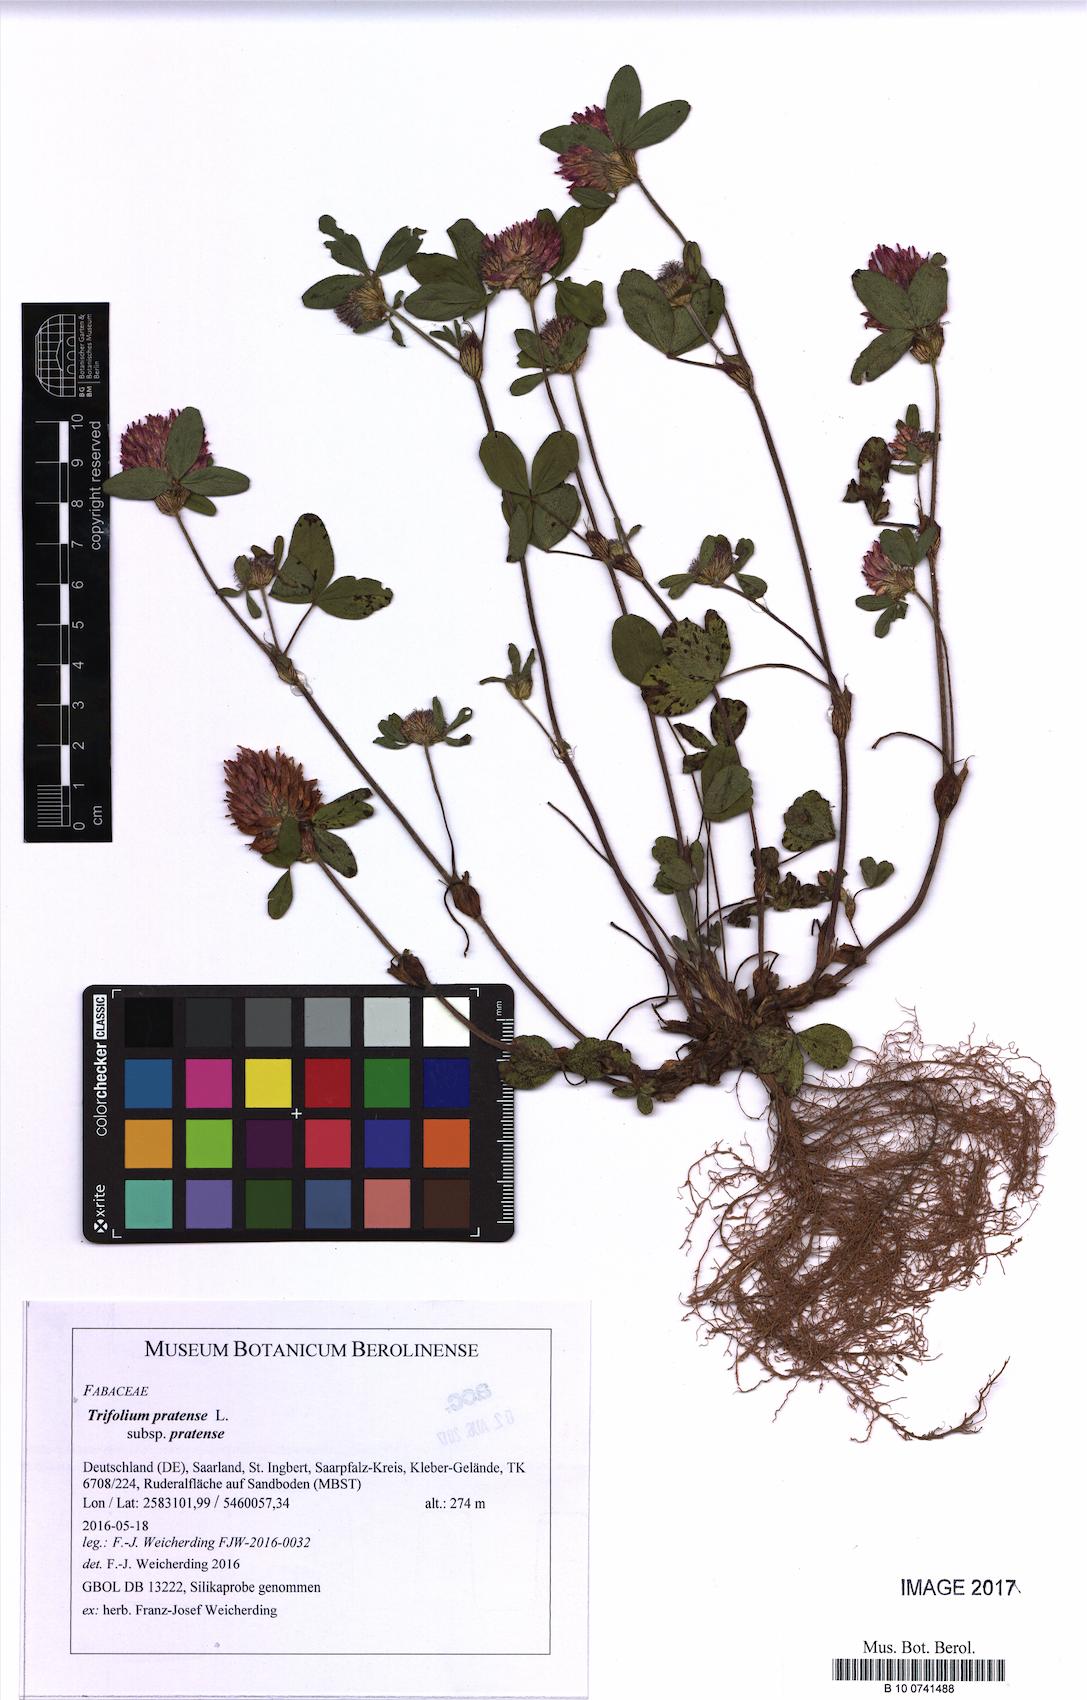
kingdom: Plantae
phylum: Tracheophyta
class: Magnoliopsida
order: Fabales
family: Fabaceae
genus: Trifolium
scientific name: Trifolium pratense
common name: Red clover
